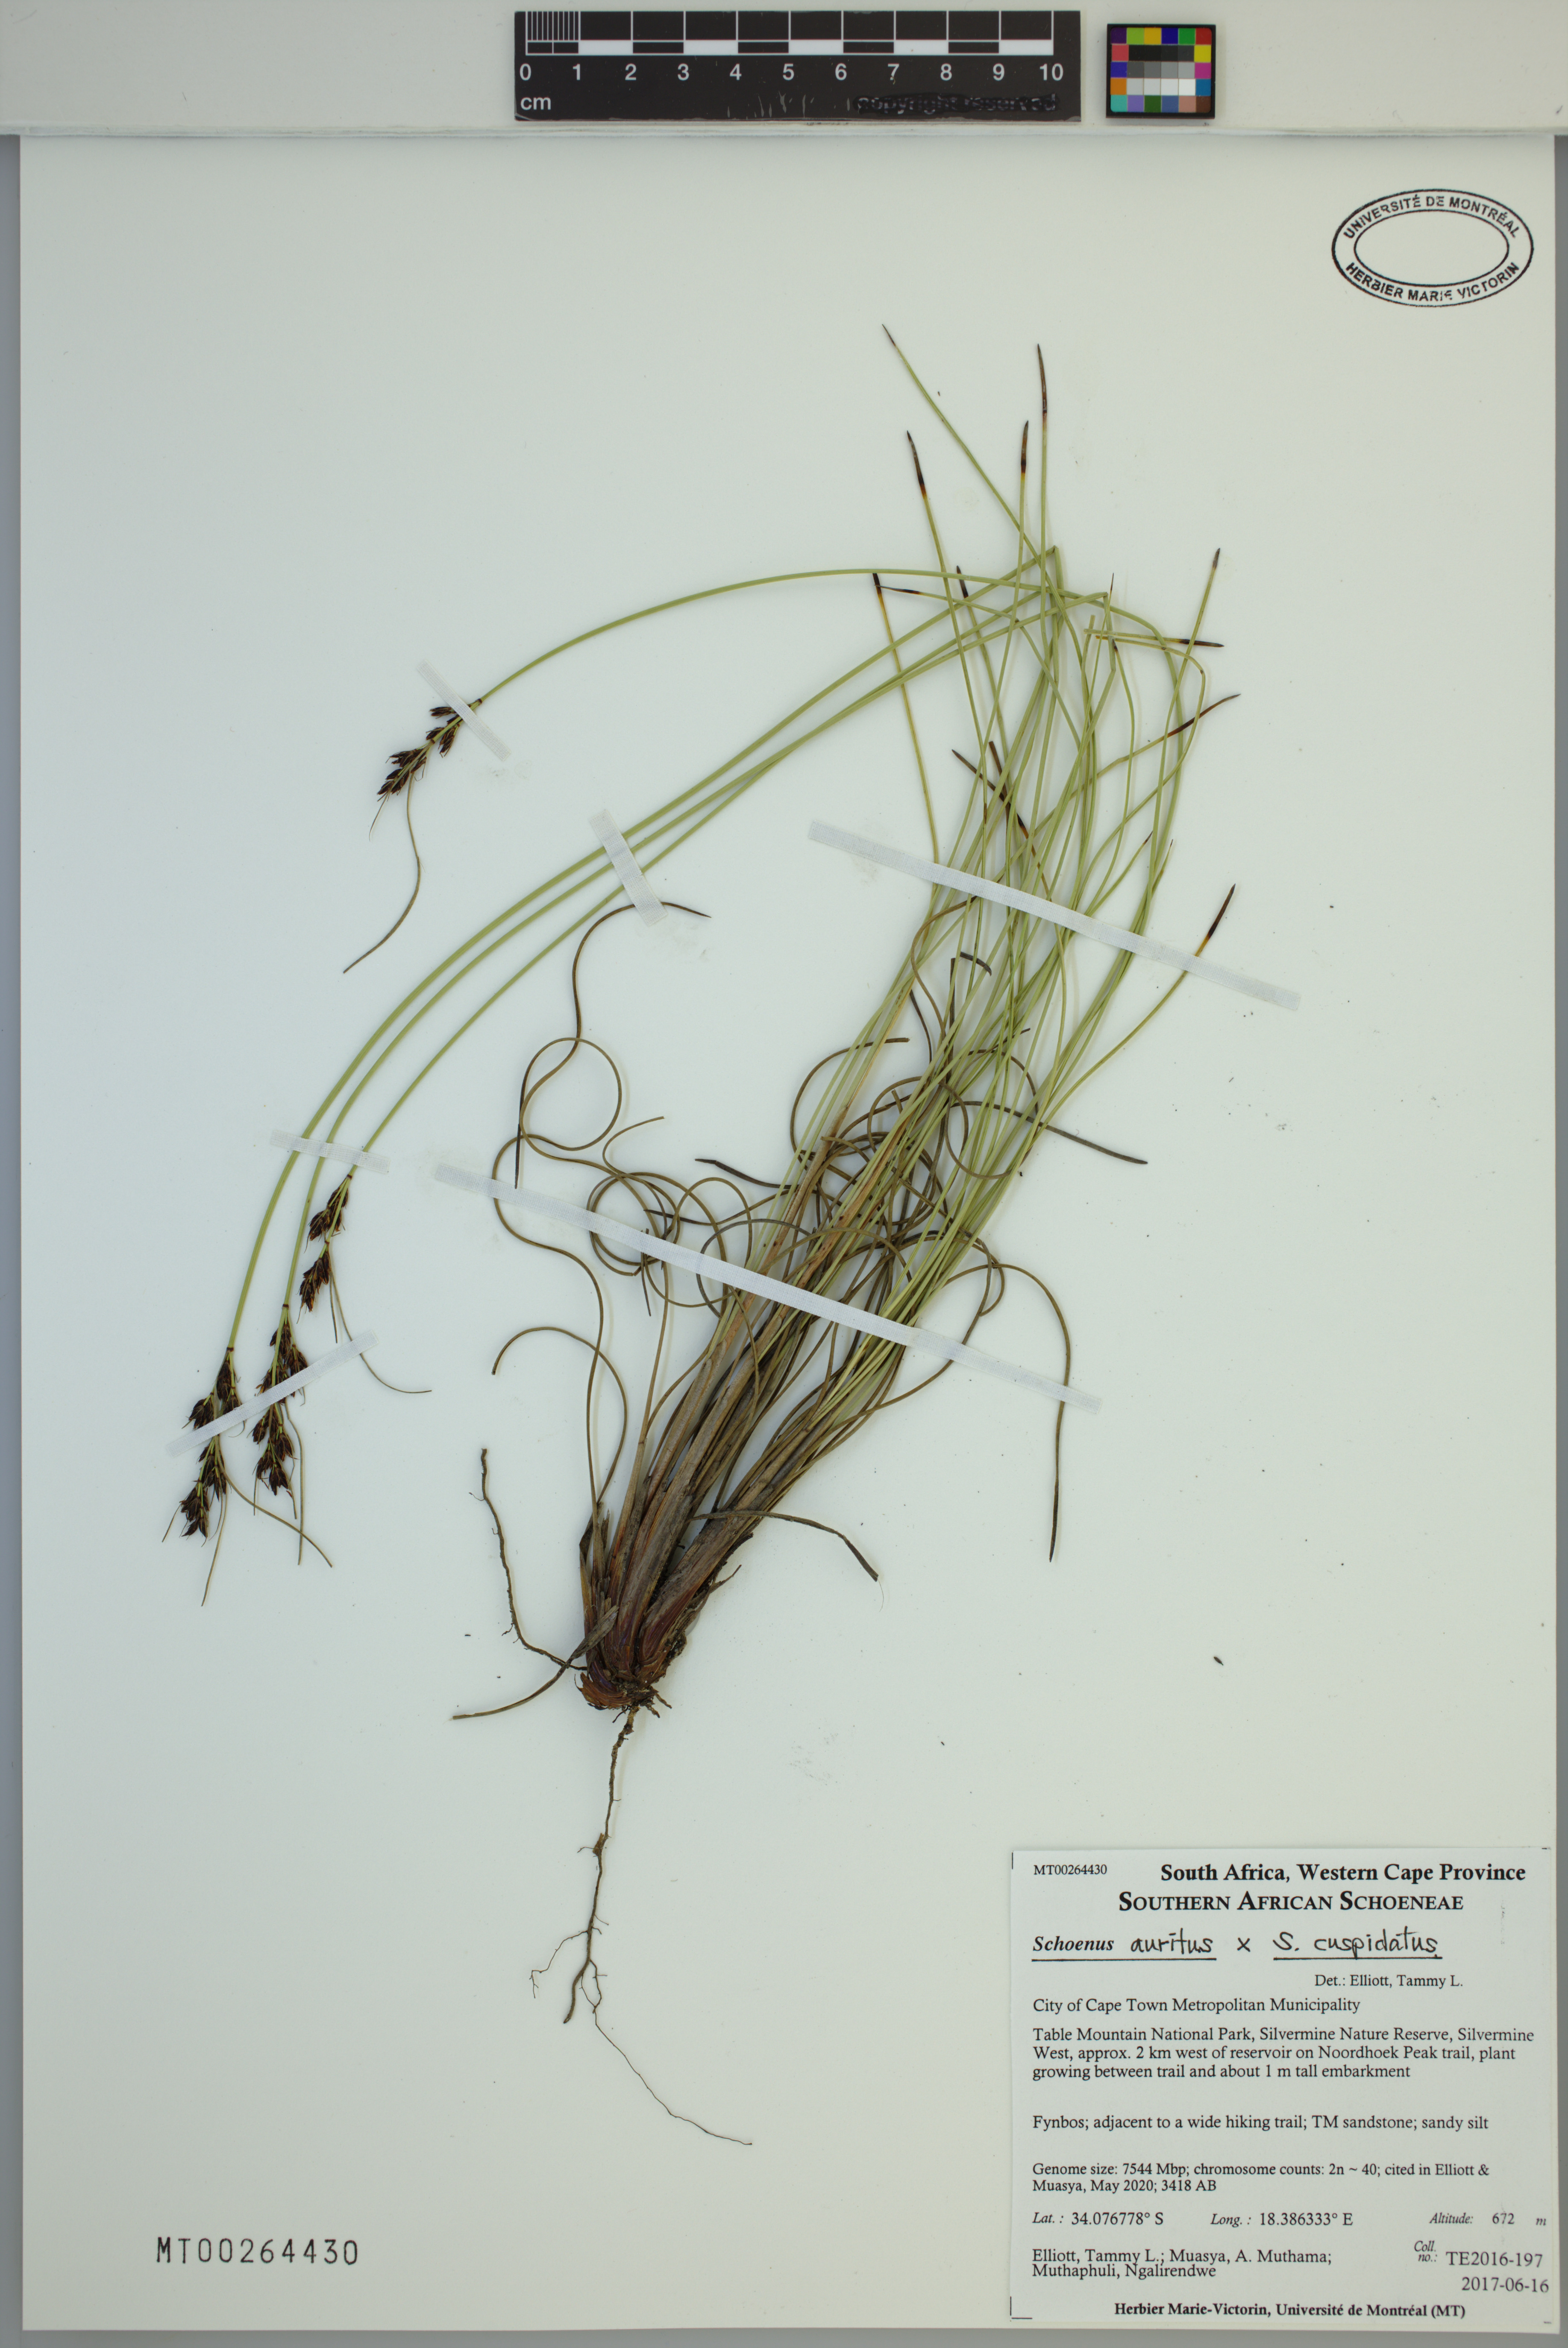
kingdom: Plantae
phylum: Tracheophyta
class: Liliopsida
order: Poales
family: Cyperaceae
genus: Schoenus
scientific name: Schoenus auritus
